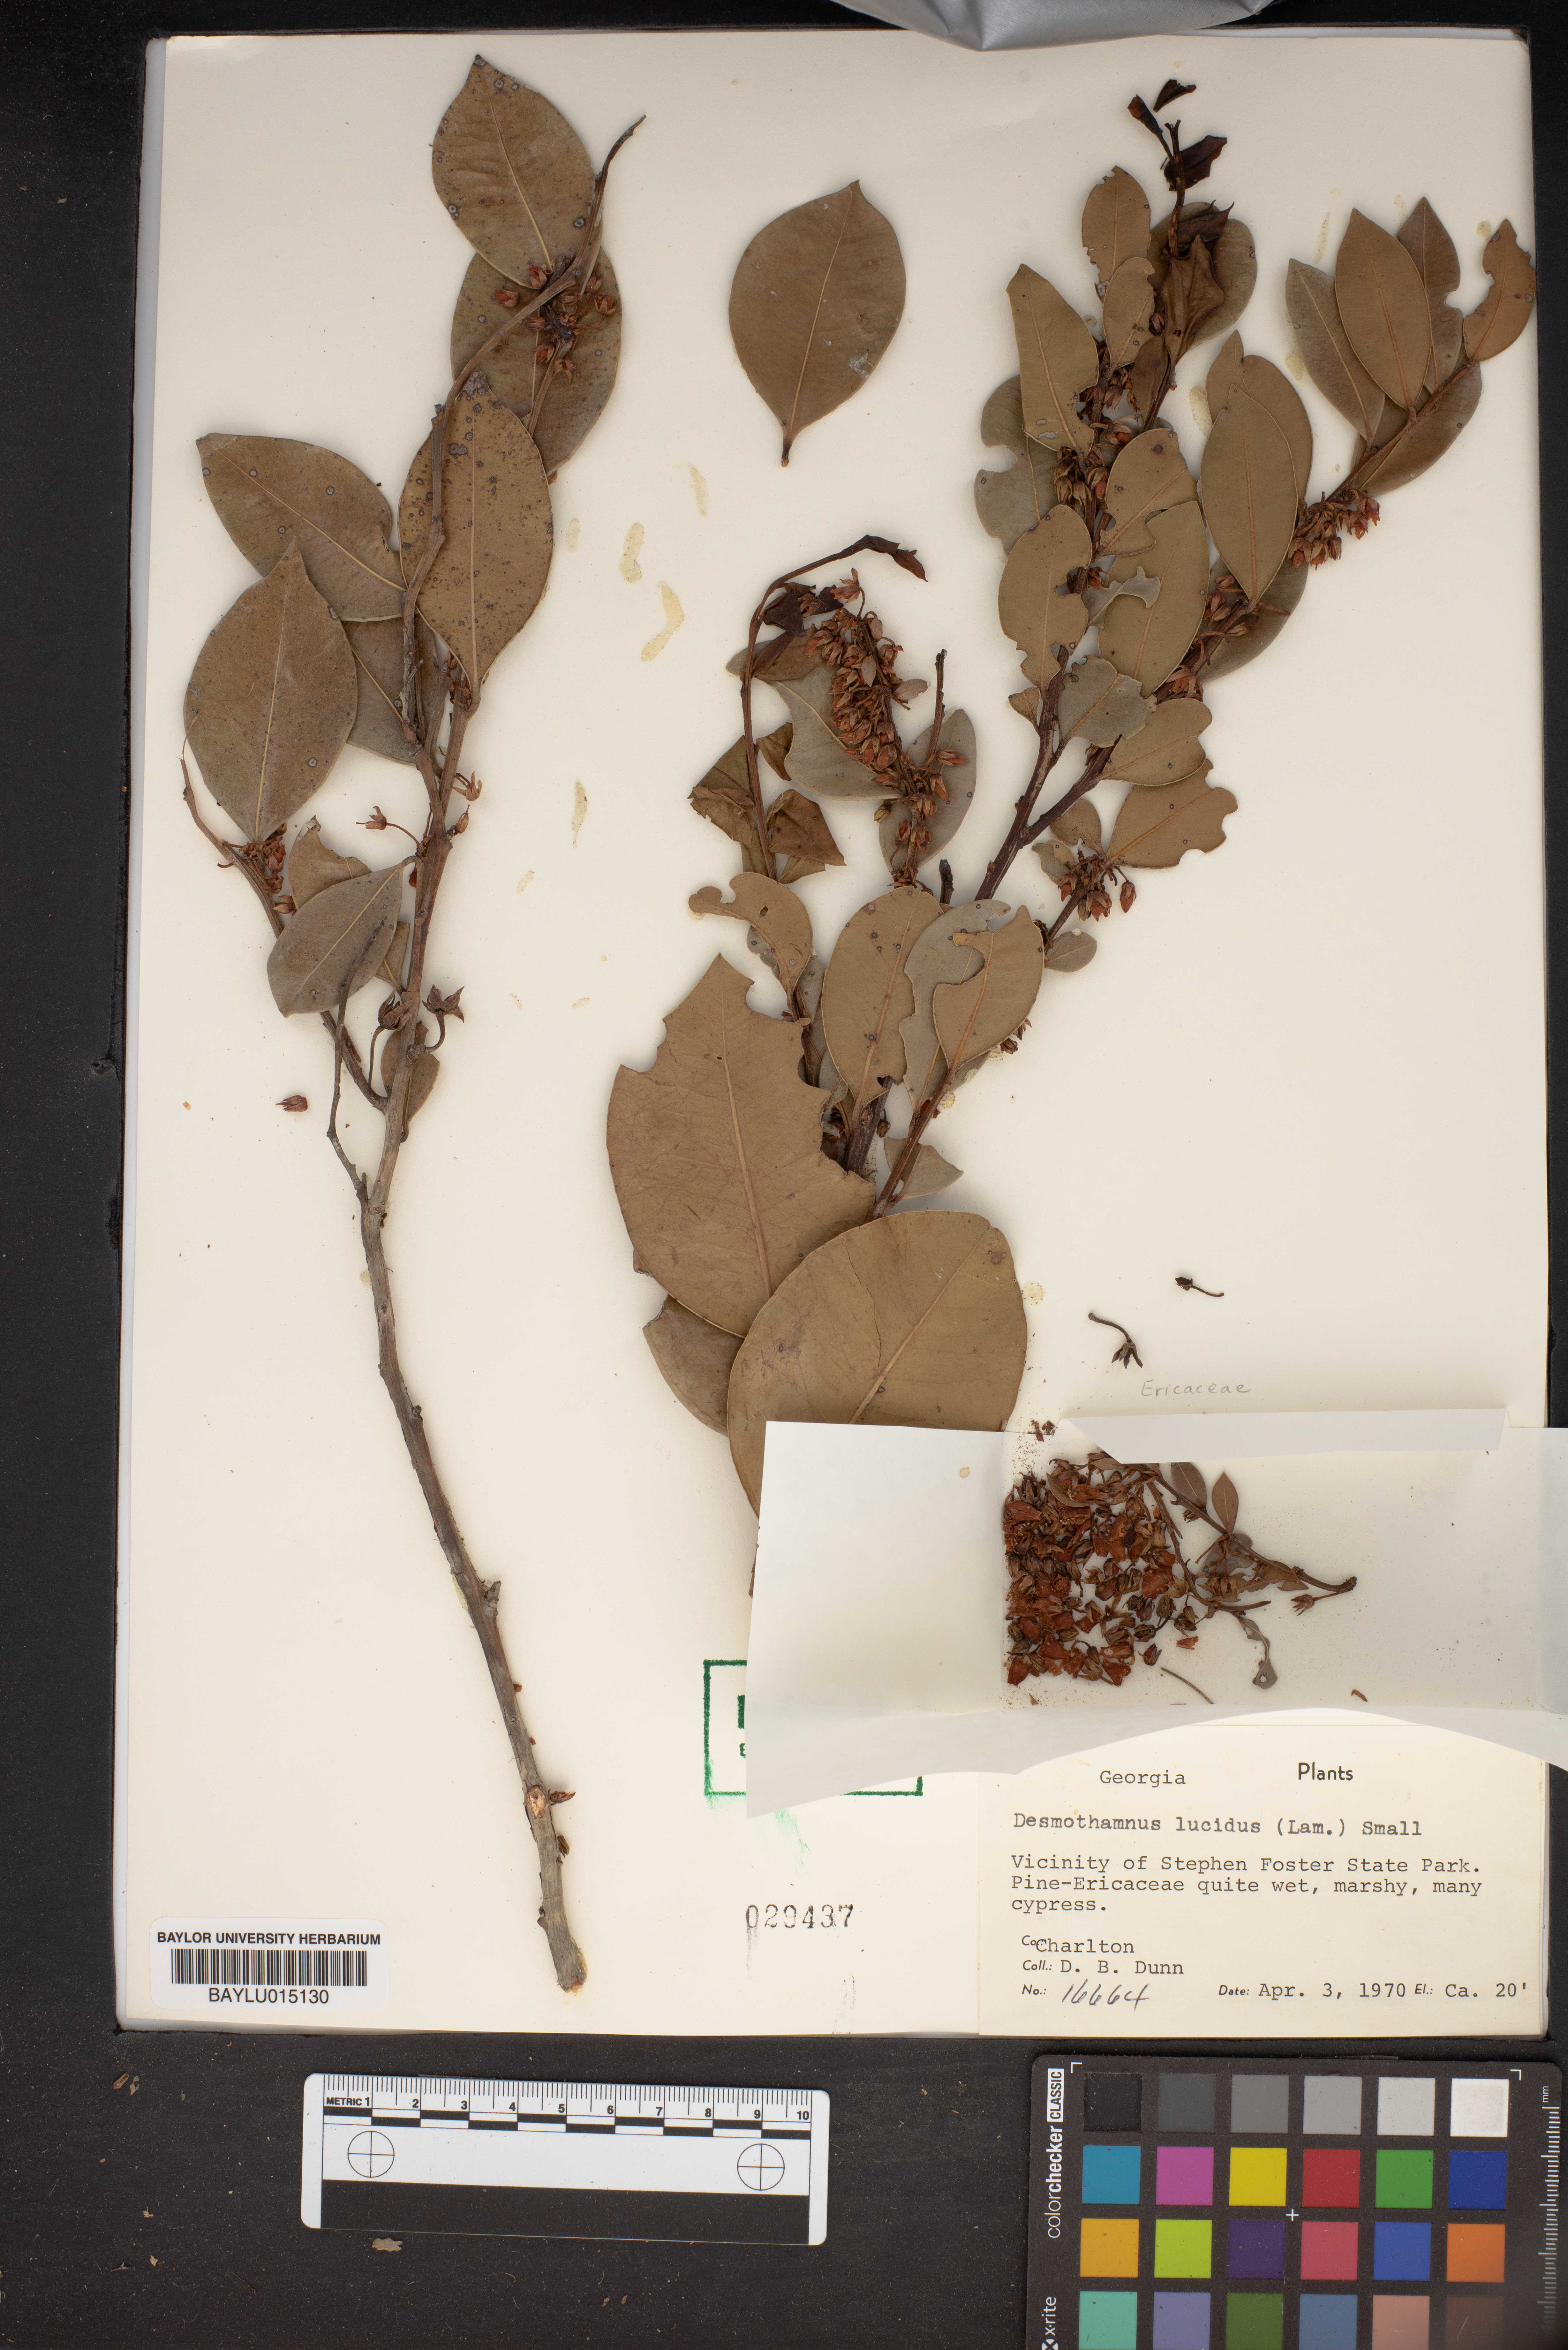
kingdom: Plantae
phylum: Tracheophyta
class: Magnoliopsida
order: Ericales
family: Ericaceae
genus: Lyonia
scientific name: Lyonia lucida
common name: Fetterbush
